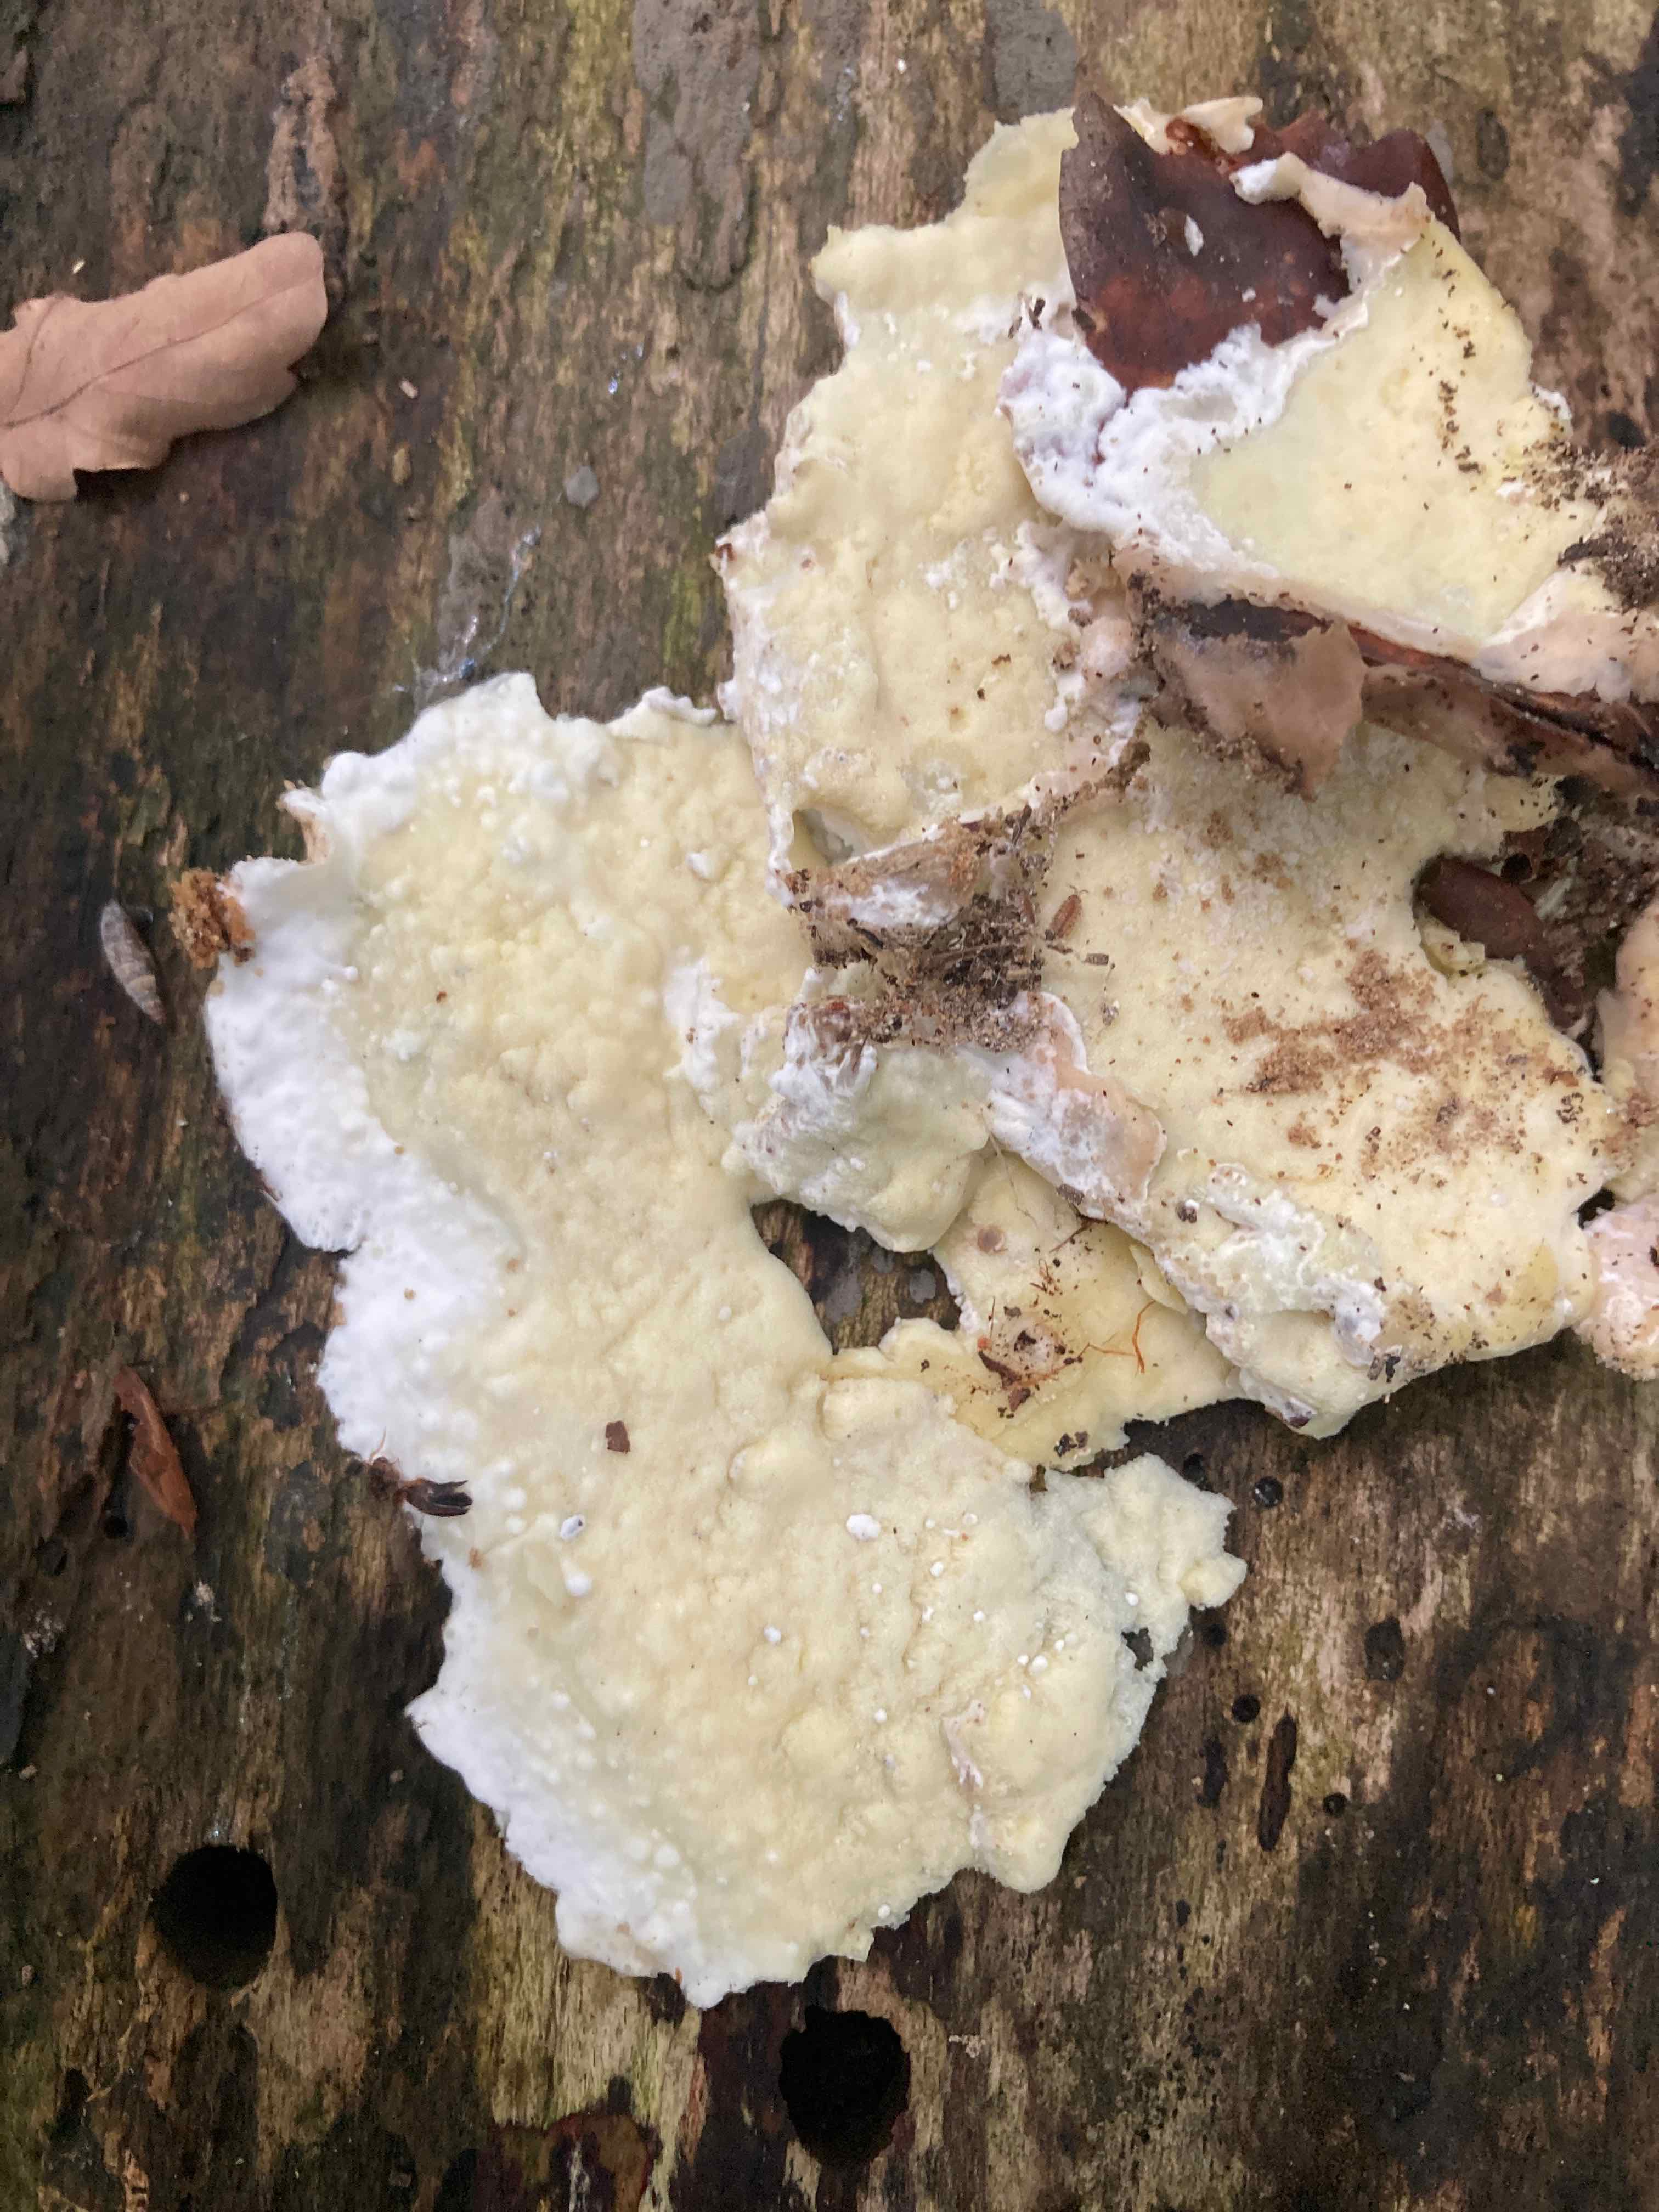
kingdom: Fungi
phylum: Basidiomycota
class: Agaricomycetes
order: Polyporales
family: Irpicaceae
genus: Gloeoporus
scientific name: Gloeoporus pannocinctus
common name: grøngul foldporesvamp
